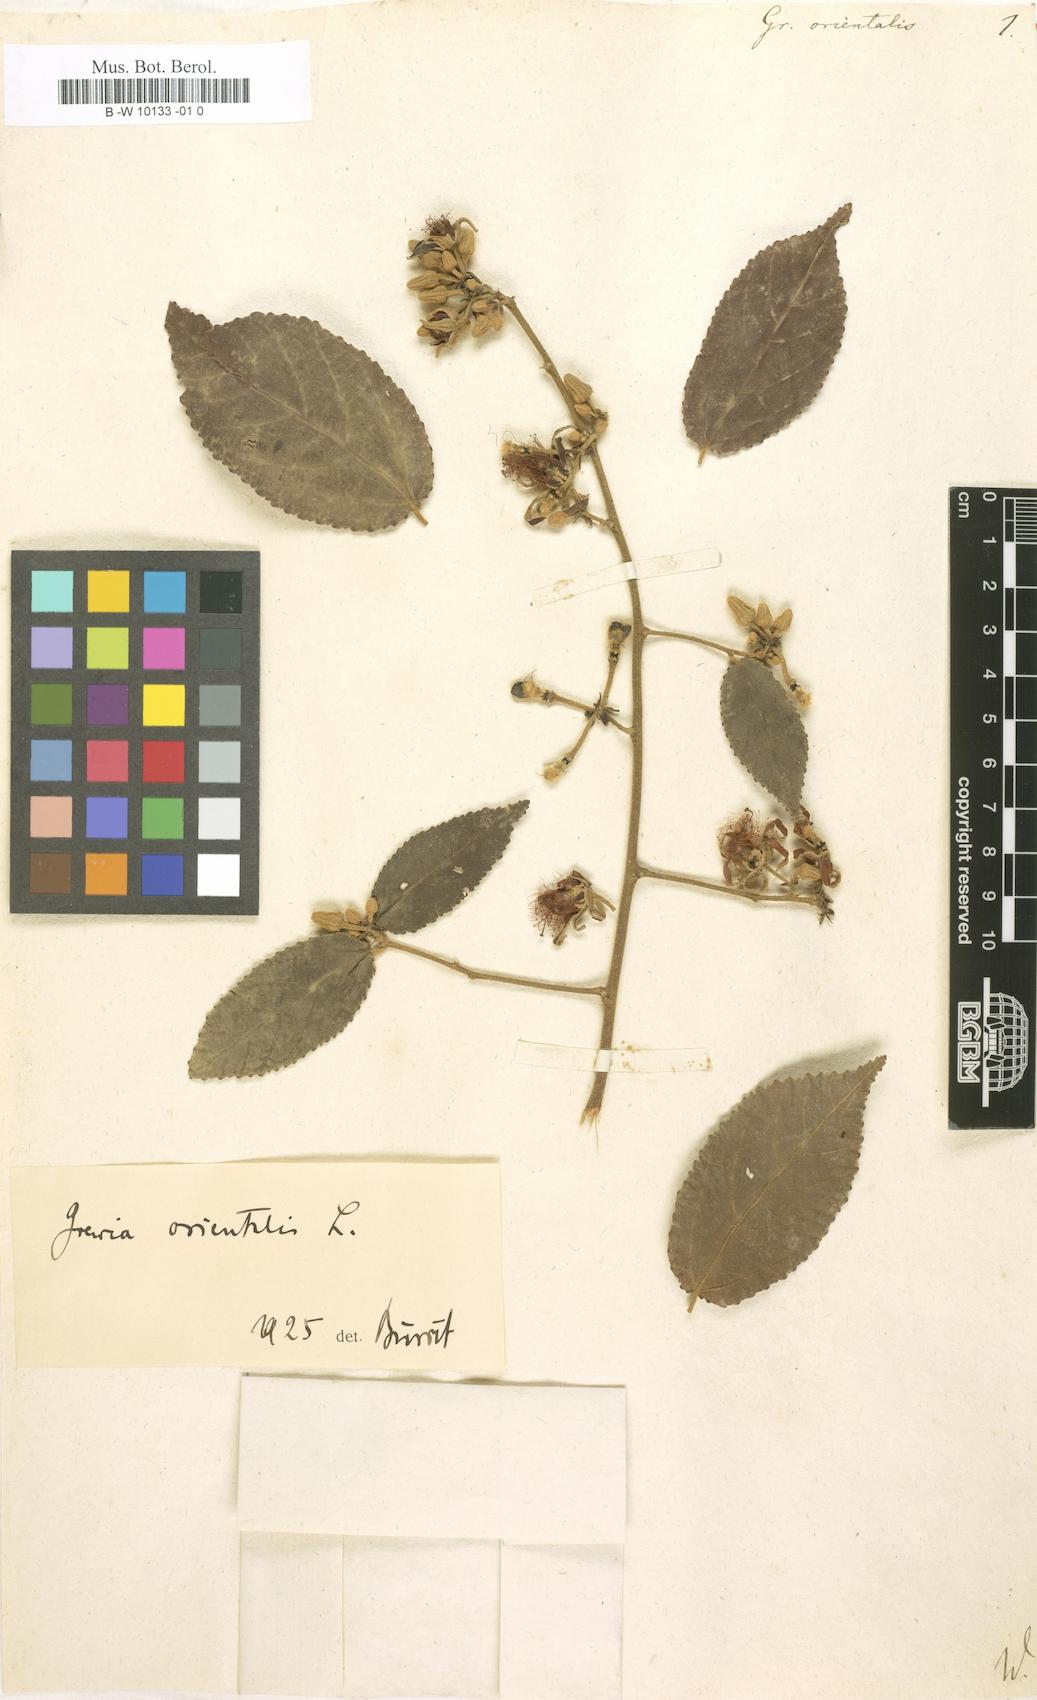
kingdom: Plantae
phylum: Tracheophyta
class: Magnoliopsida
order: Malvales
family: Malvaceae
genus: Grewia
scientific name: Grewia orientalis
